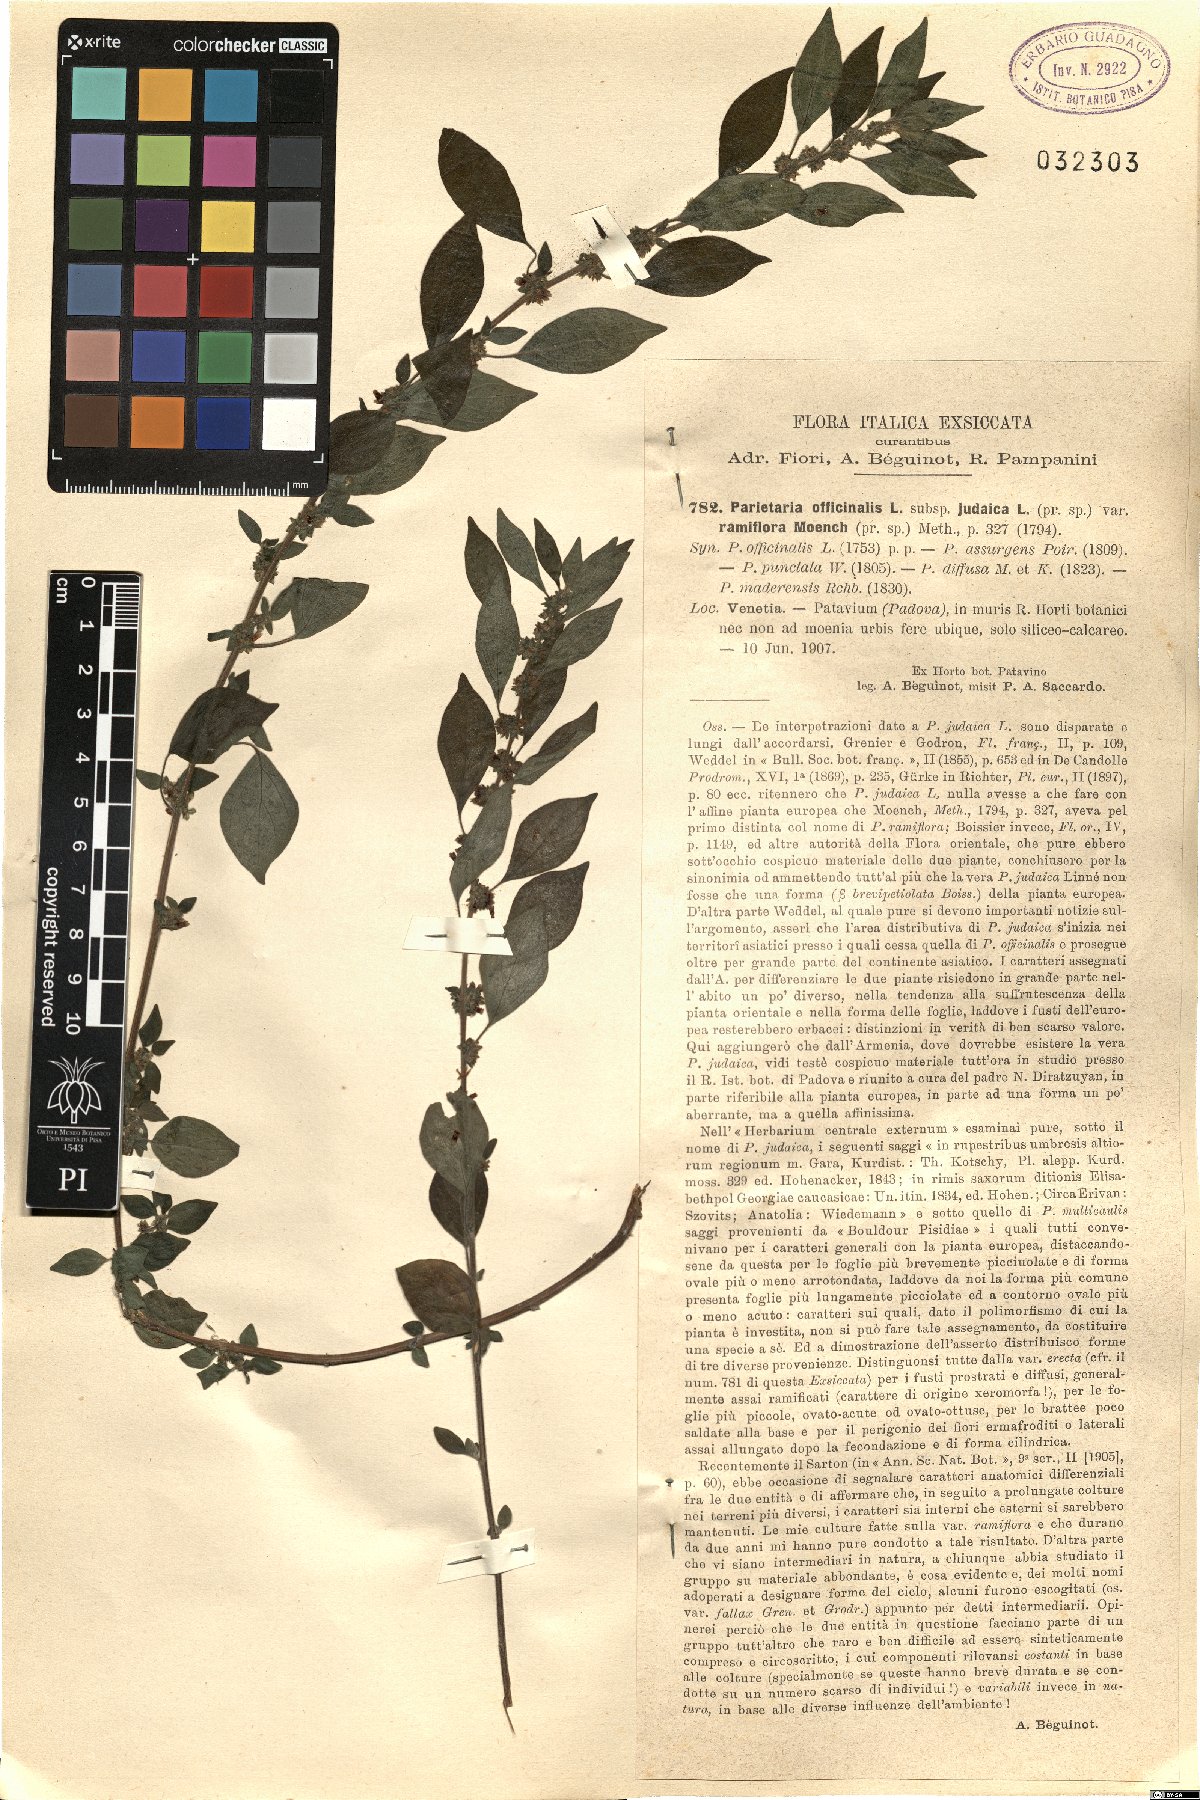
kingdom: Plantae
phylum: Tracheophyta
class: Magnoliopsida
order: Rosales
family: Urticaceae
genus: Parietaria
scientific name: Parietaria judaica
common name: Pellitory-of-the-wall
